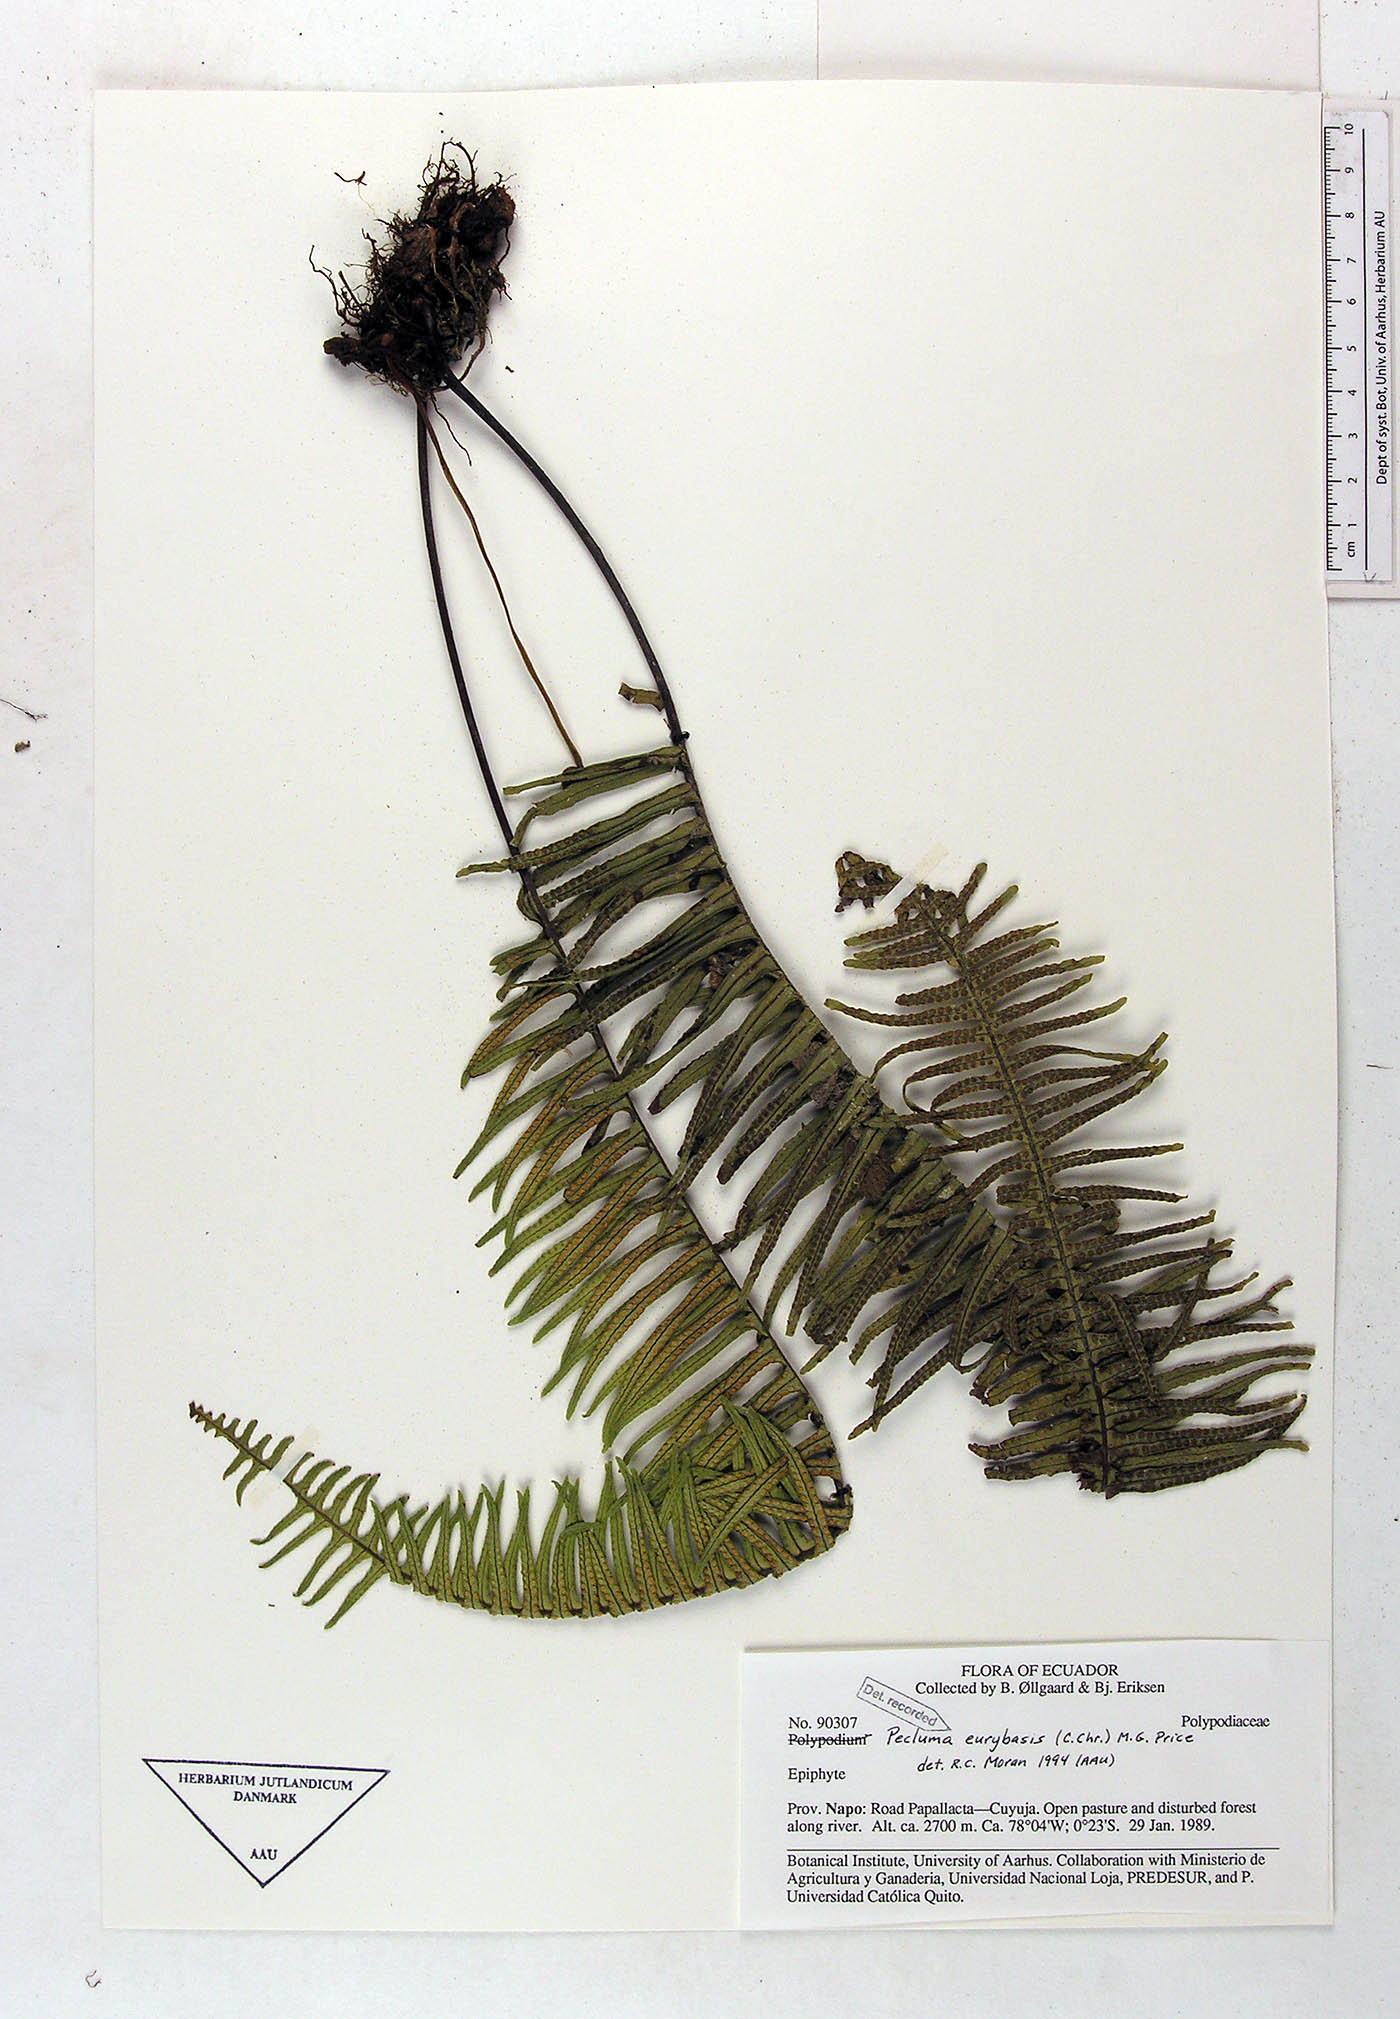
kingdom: Plantae
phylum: Tracheophyta
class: Polypodiopsida
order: Polypodiales
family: Polypodiaceae
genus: Pecluma
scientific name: Pecluma eurybasis
